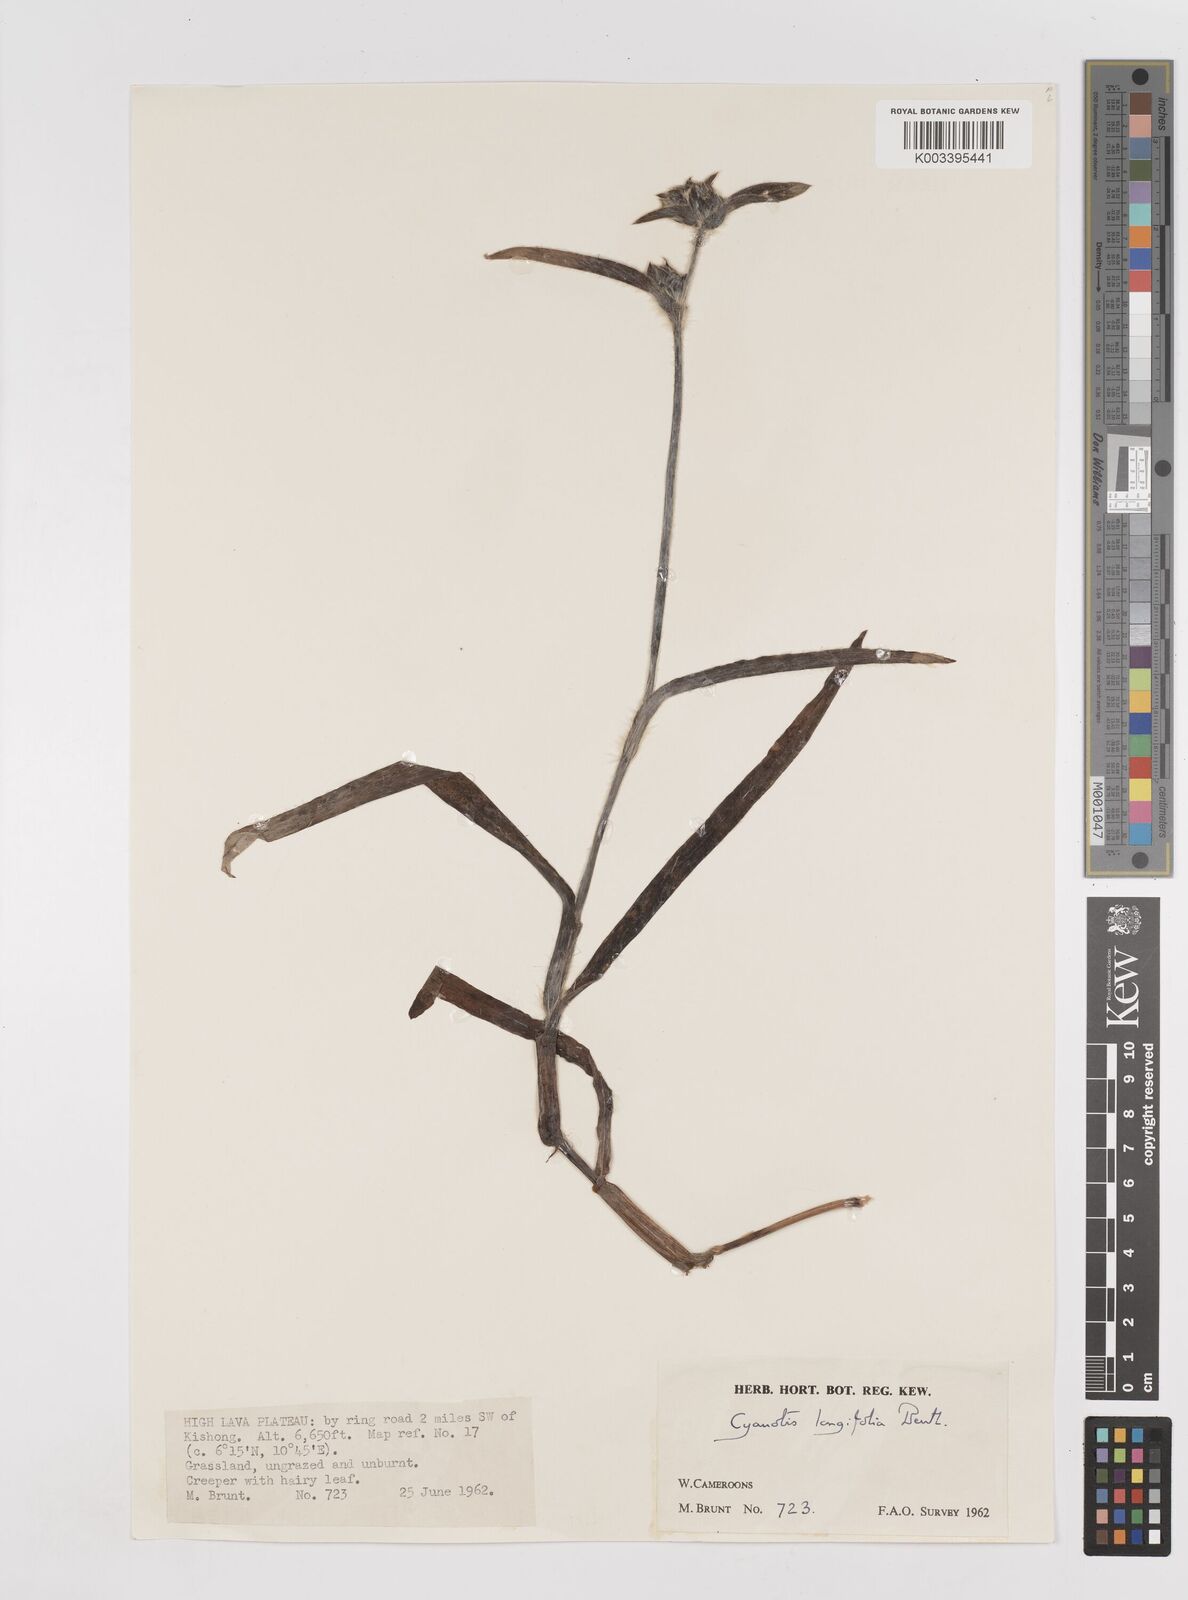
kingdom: Plantae
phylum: Tracheophyta
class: Liliopsida
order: Commelinales
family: Commelinaceae
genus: Cyanotis
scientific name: Cyanotis longifolia
